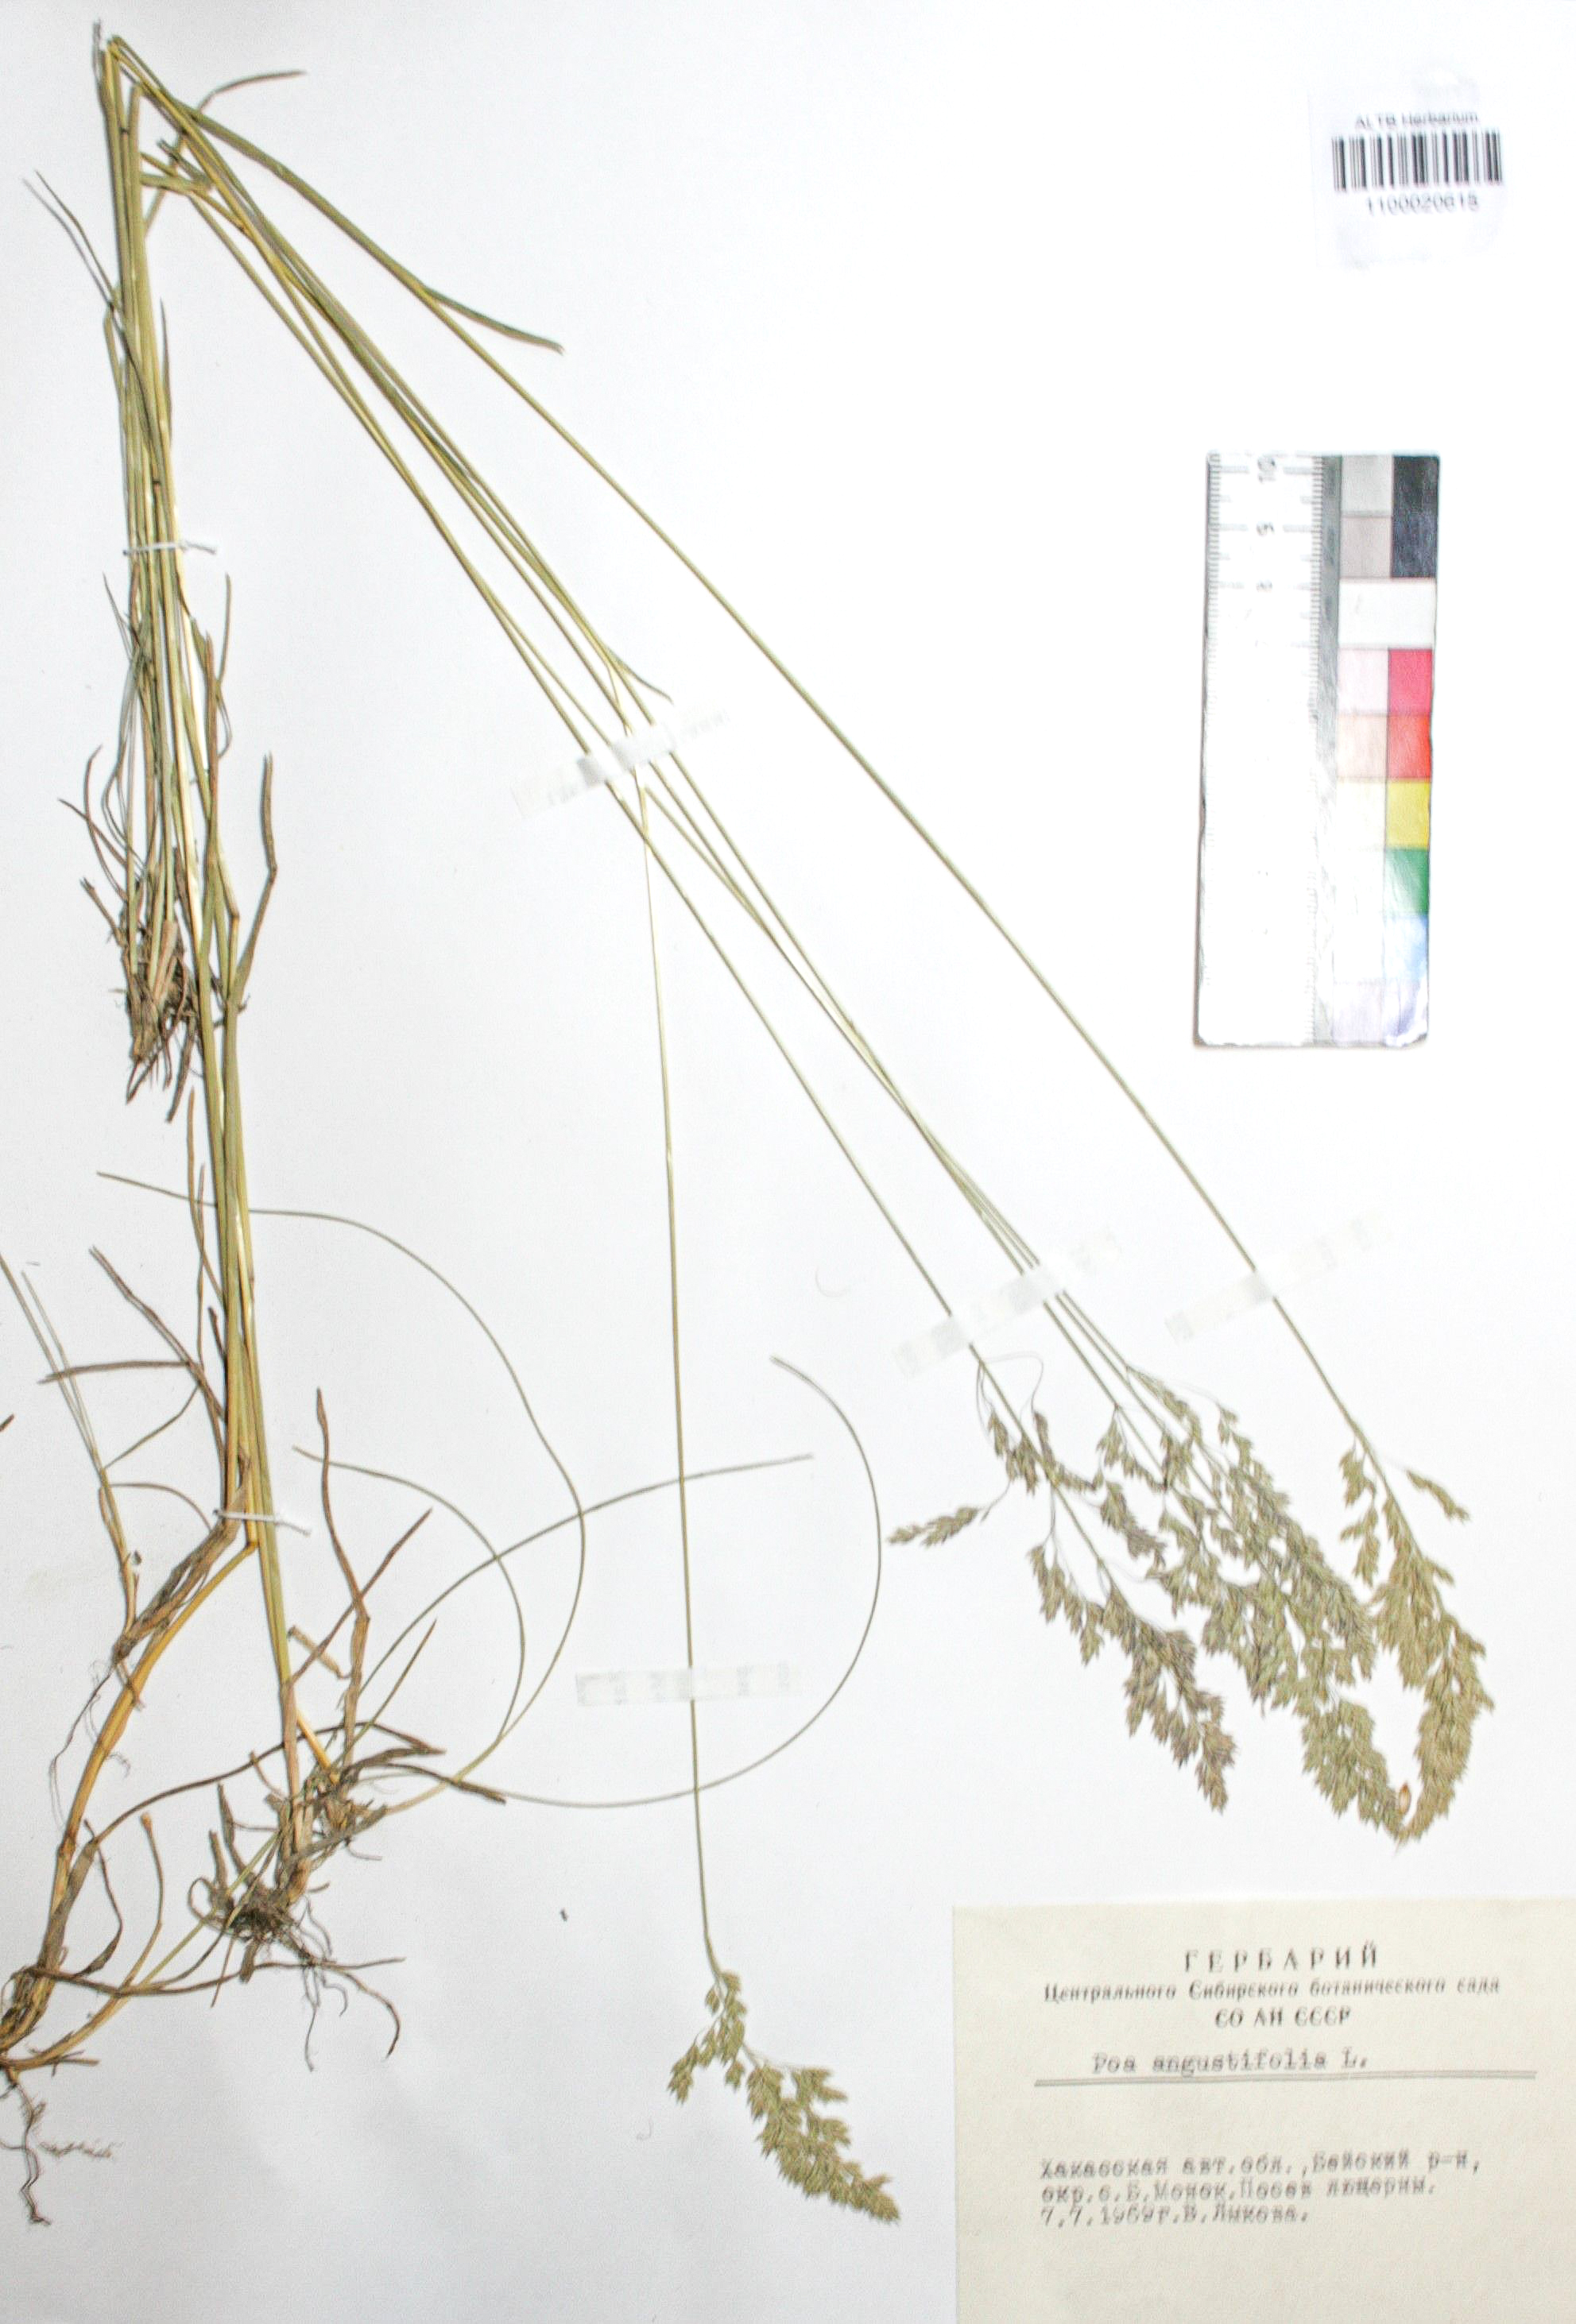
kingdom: Plantae
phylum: Tracheophyta
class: Liliopsida
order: Poales
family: Poaceae
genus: Elymus
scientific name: Elymus mutabilis
